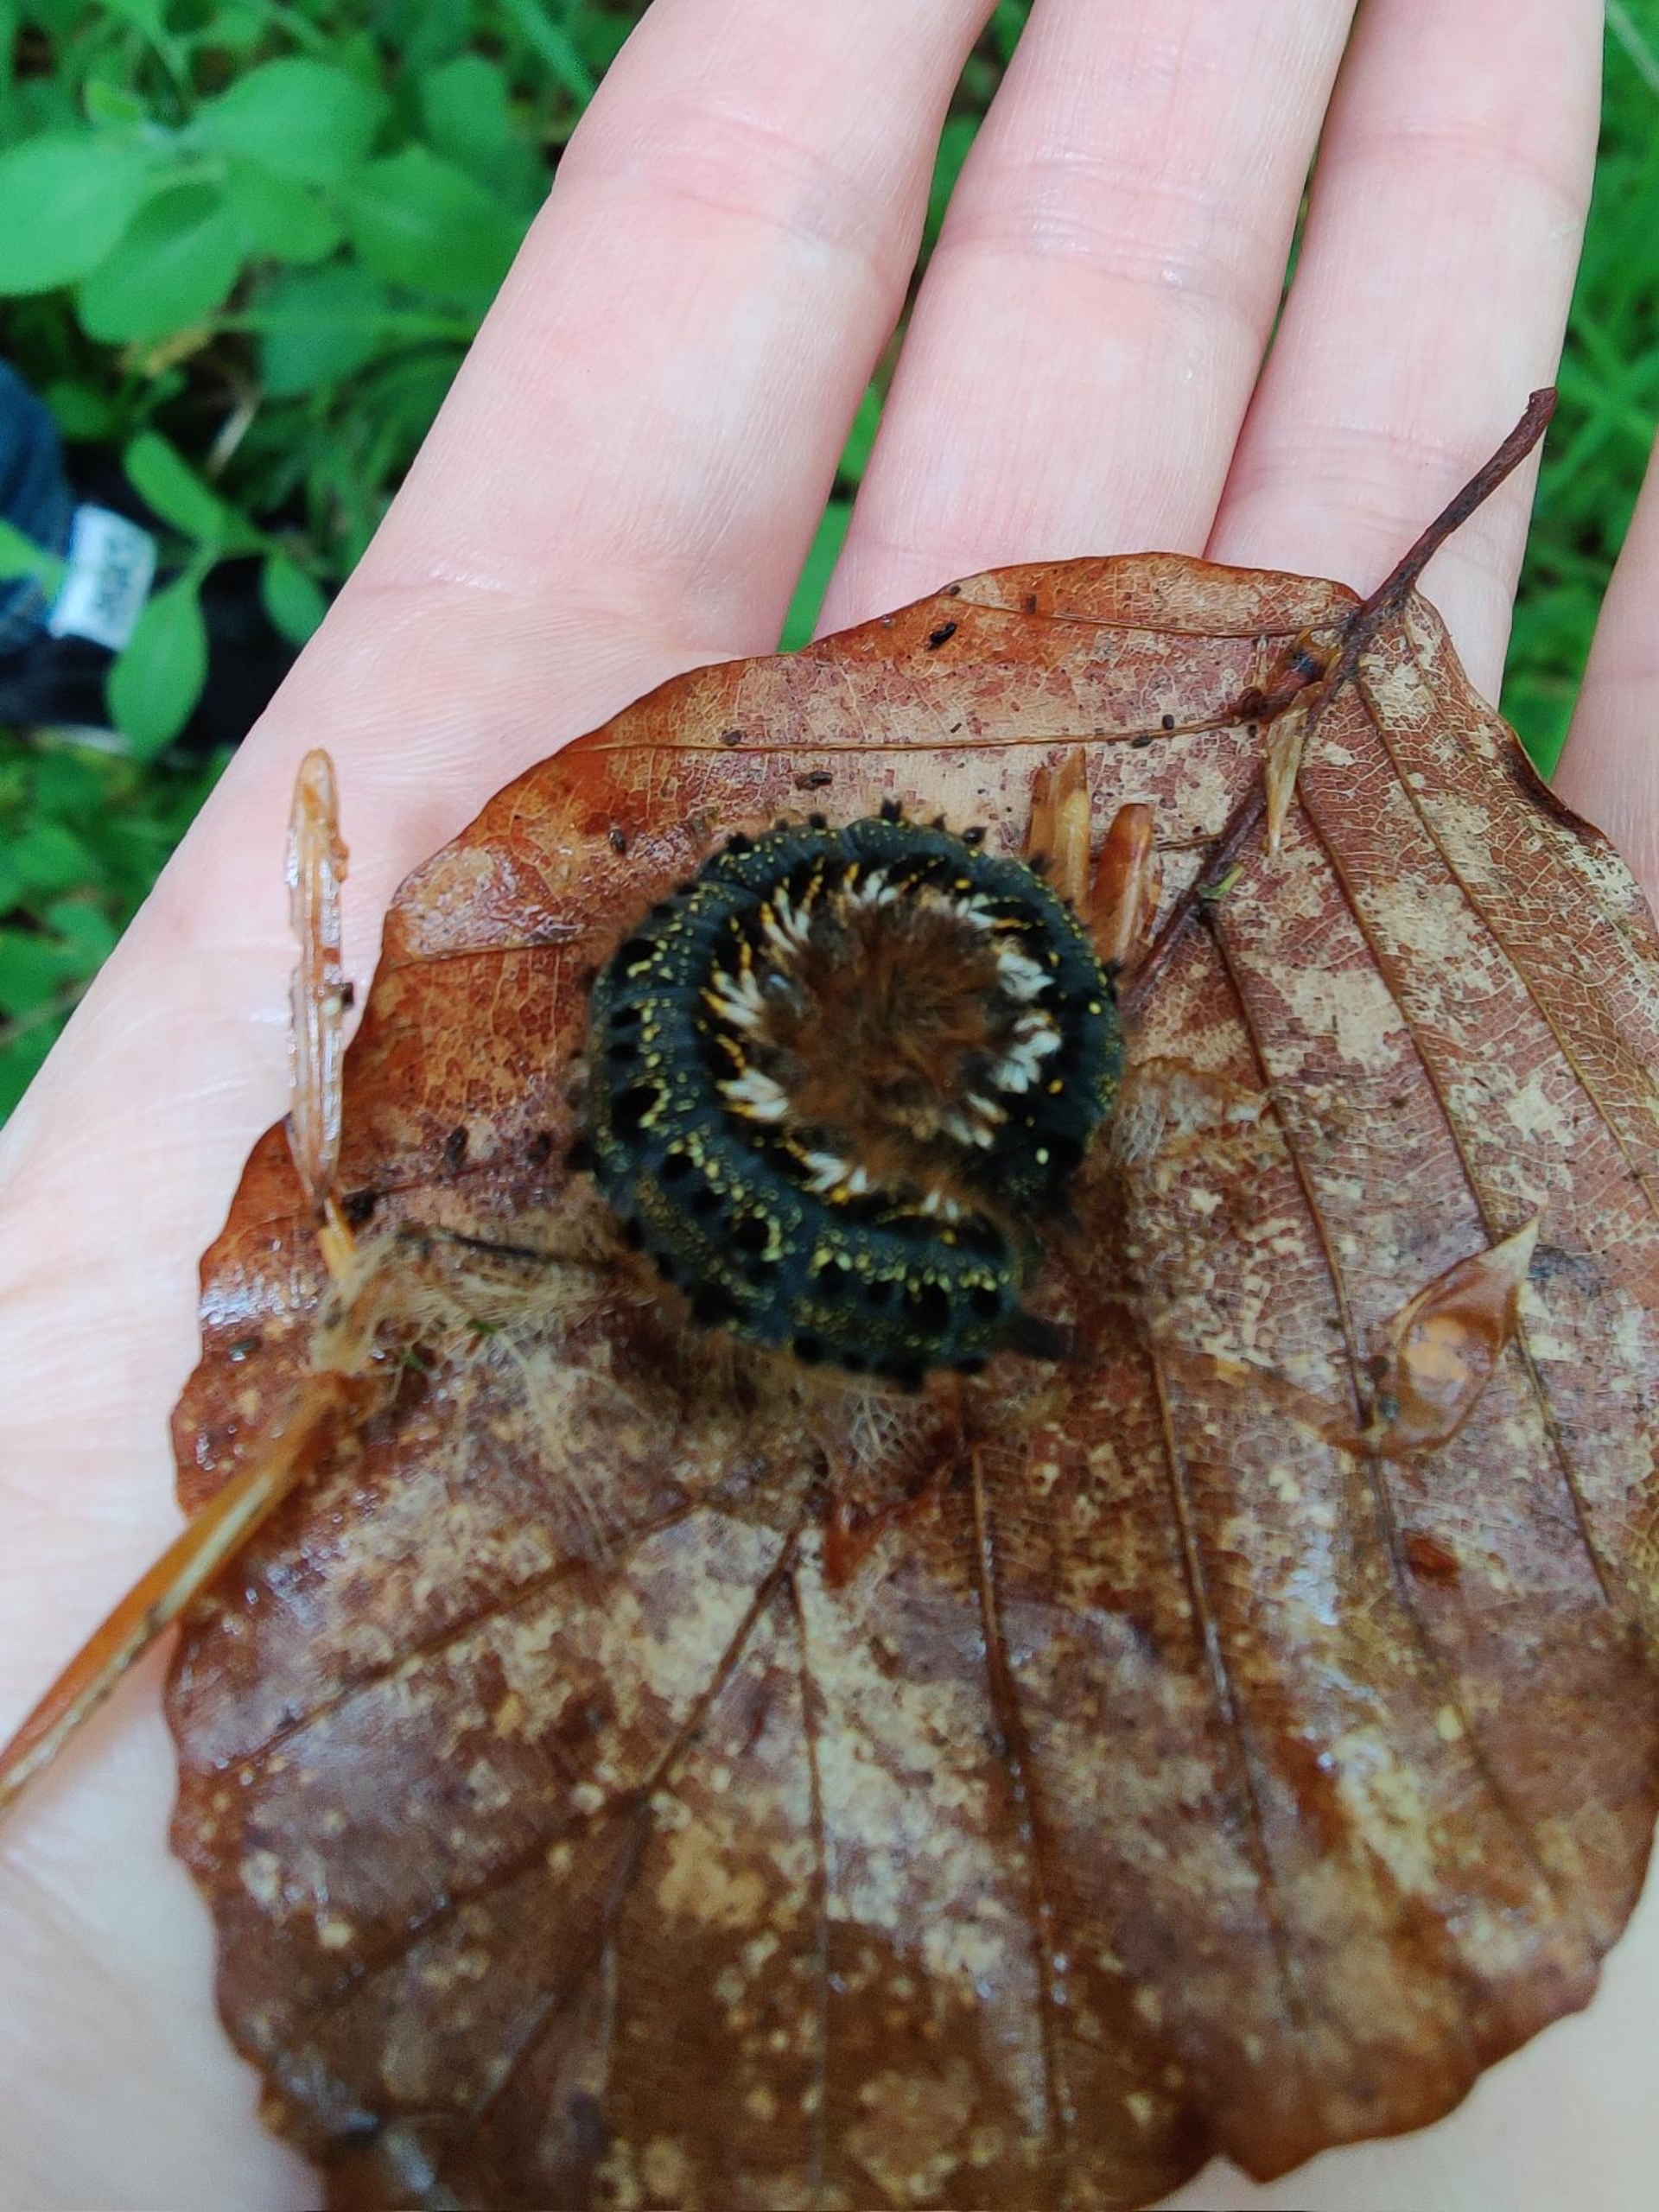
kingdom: Animalia
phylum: Arthropoda
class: Insecta
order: Lepidoptera
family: Lasiocampidae
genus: Euthrix
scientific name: Euthrix potatoria
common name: Græsspinder
